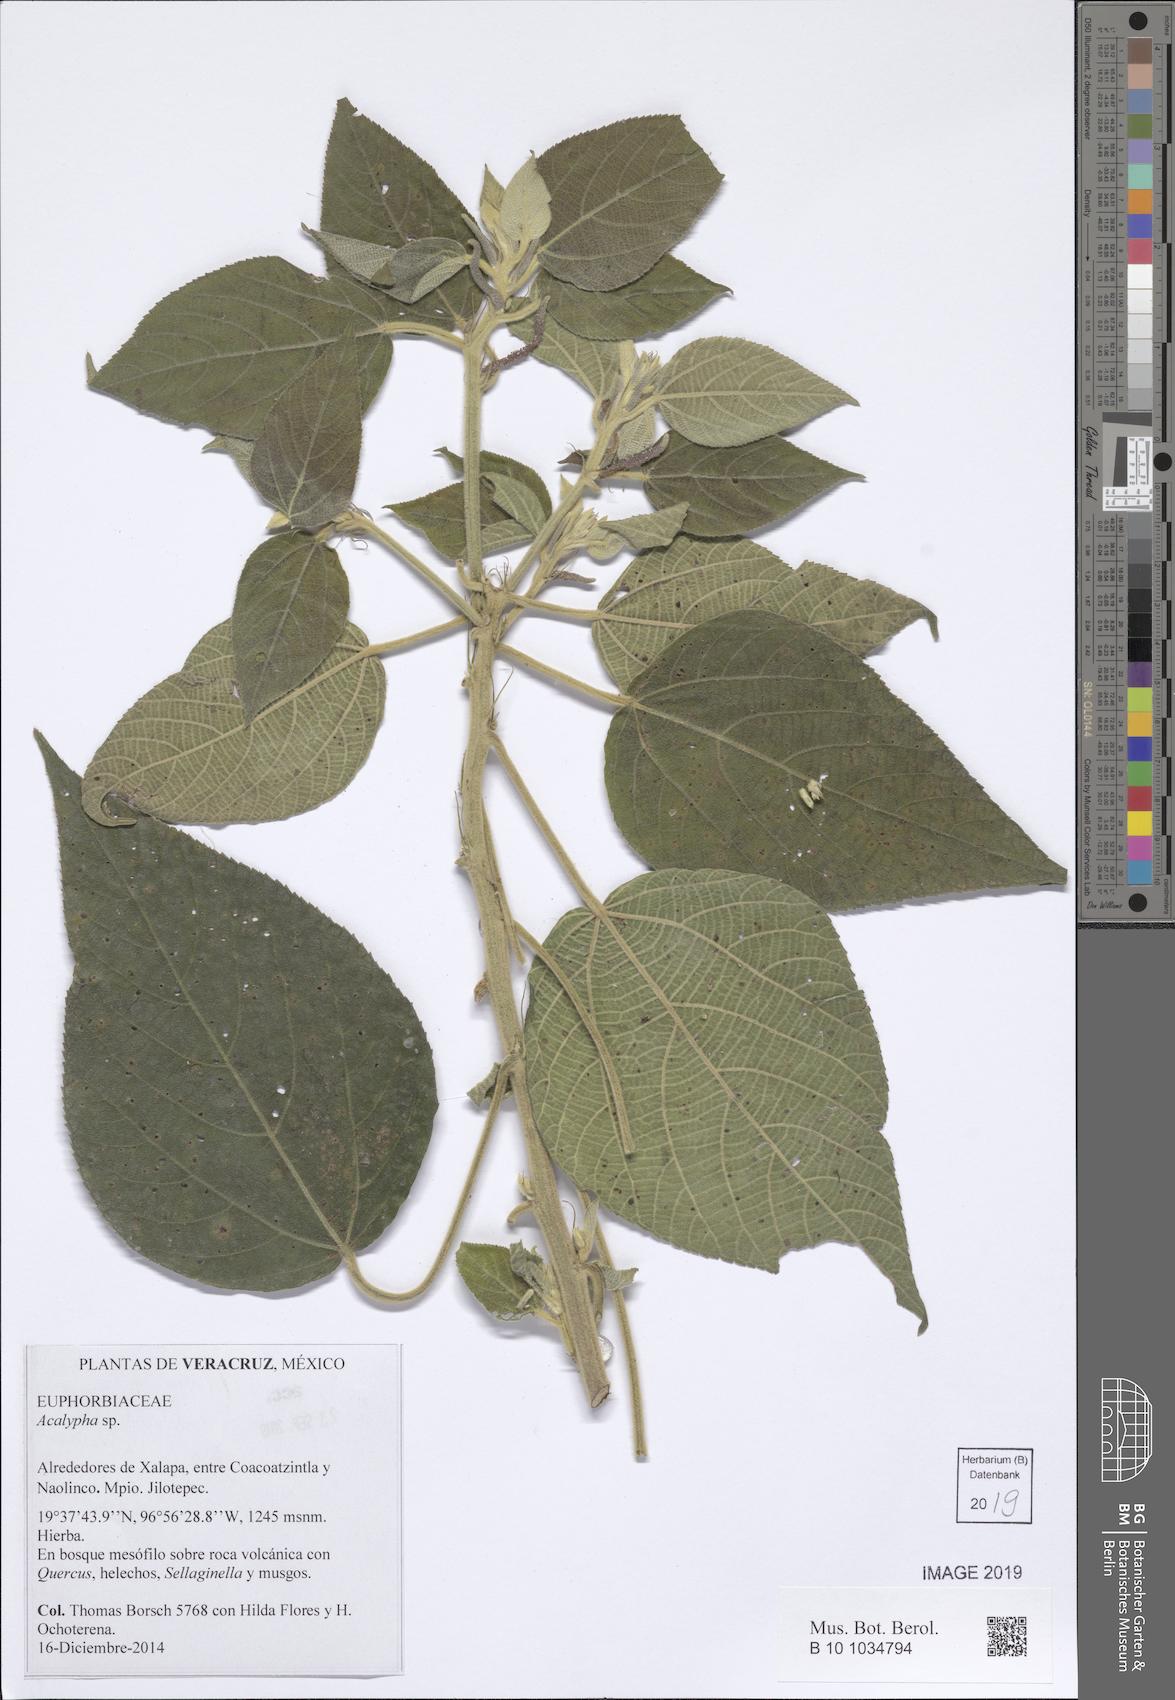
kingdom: Plantae
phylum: Tracheophyta
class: Magnoliopsida
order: Malpighiales
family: Euphorbiaceae
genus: Acalypha
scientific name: Acalypha
